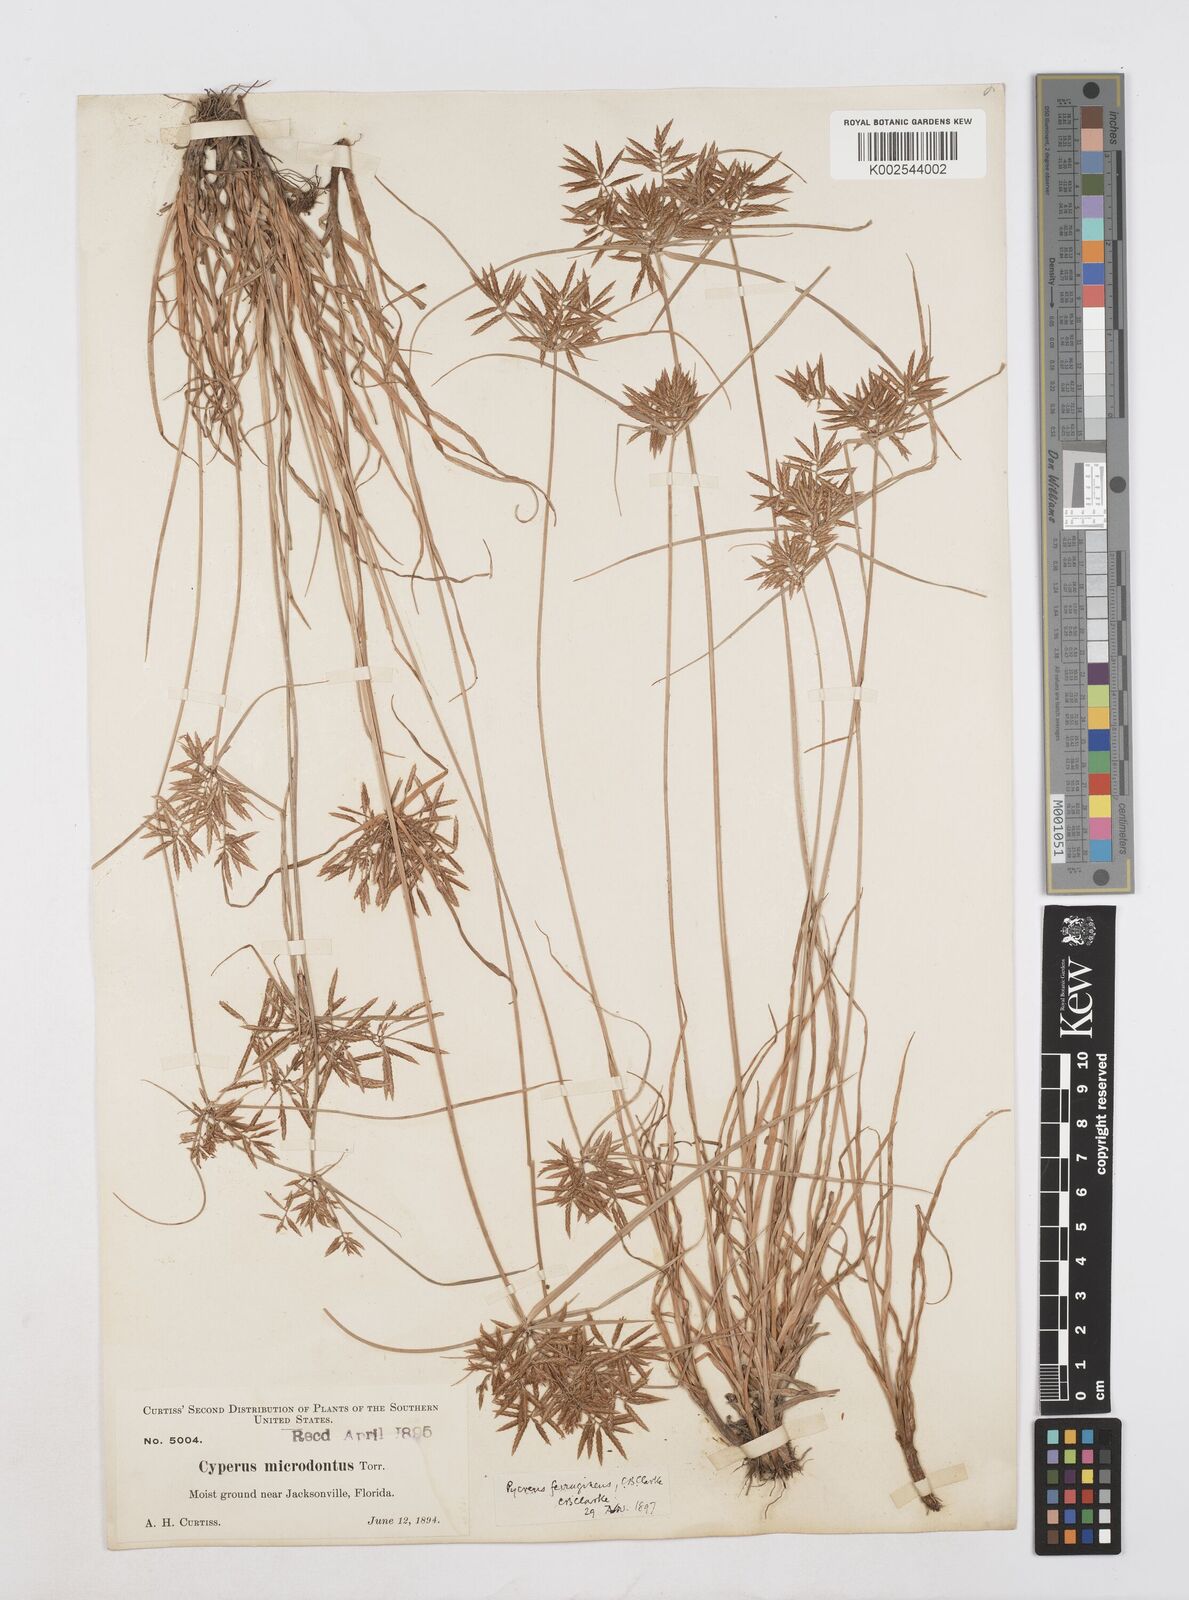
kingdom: Plantae
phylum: Tracheophyta
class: Liliopsida
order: Poales
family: Cyperaceae
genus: Cyperus
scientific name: Cyperus filicinus
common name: Fern flatsedge
